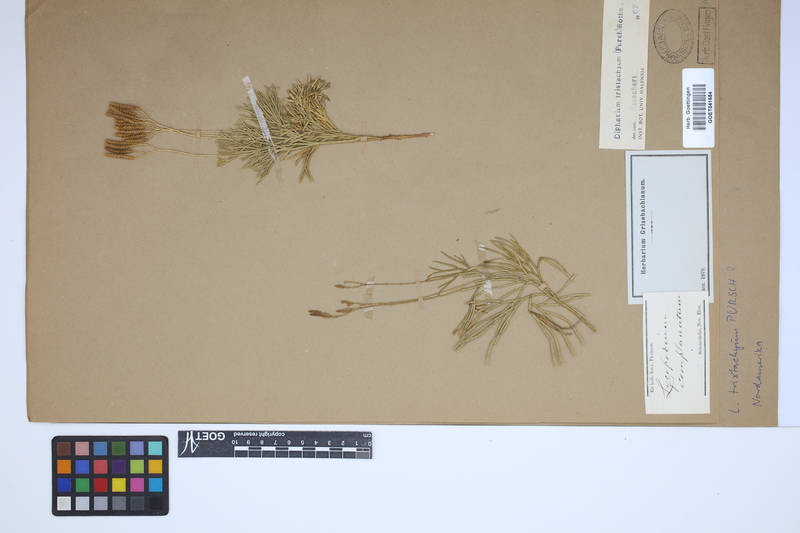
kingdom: Plantae
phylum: Tracheophyta
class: Lycopodiopsida
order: Lycopodiales
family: Lycopodiaceae
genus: Diphasiastrum
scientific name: Diphasiastrum tristachyum
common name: Blue ground-cedar
